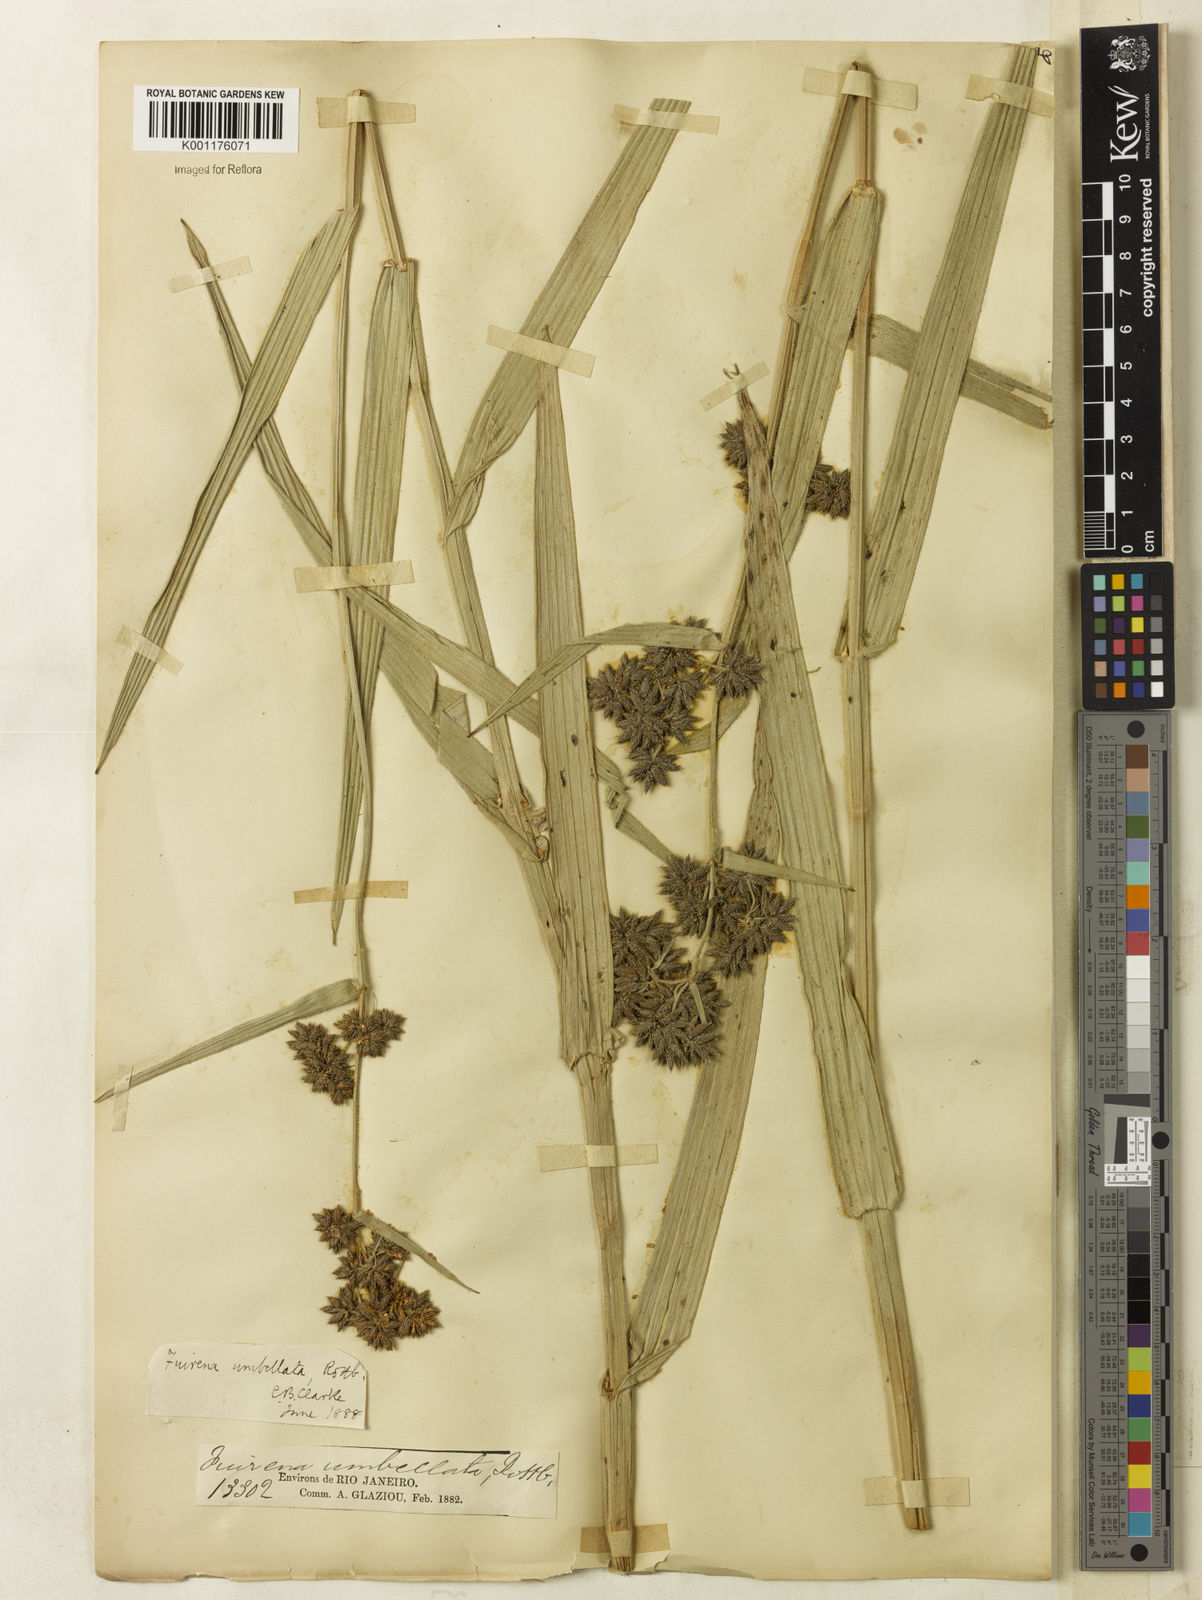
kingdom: Plantae
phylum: Tracheophyta
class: Liliopsida
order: Poales
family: Cyperaceae
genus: Fuirena
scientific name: Fuirena umbellata
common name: Yefen
